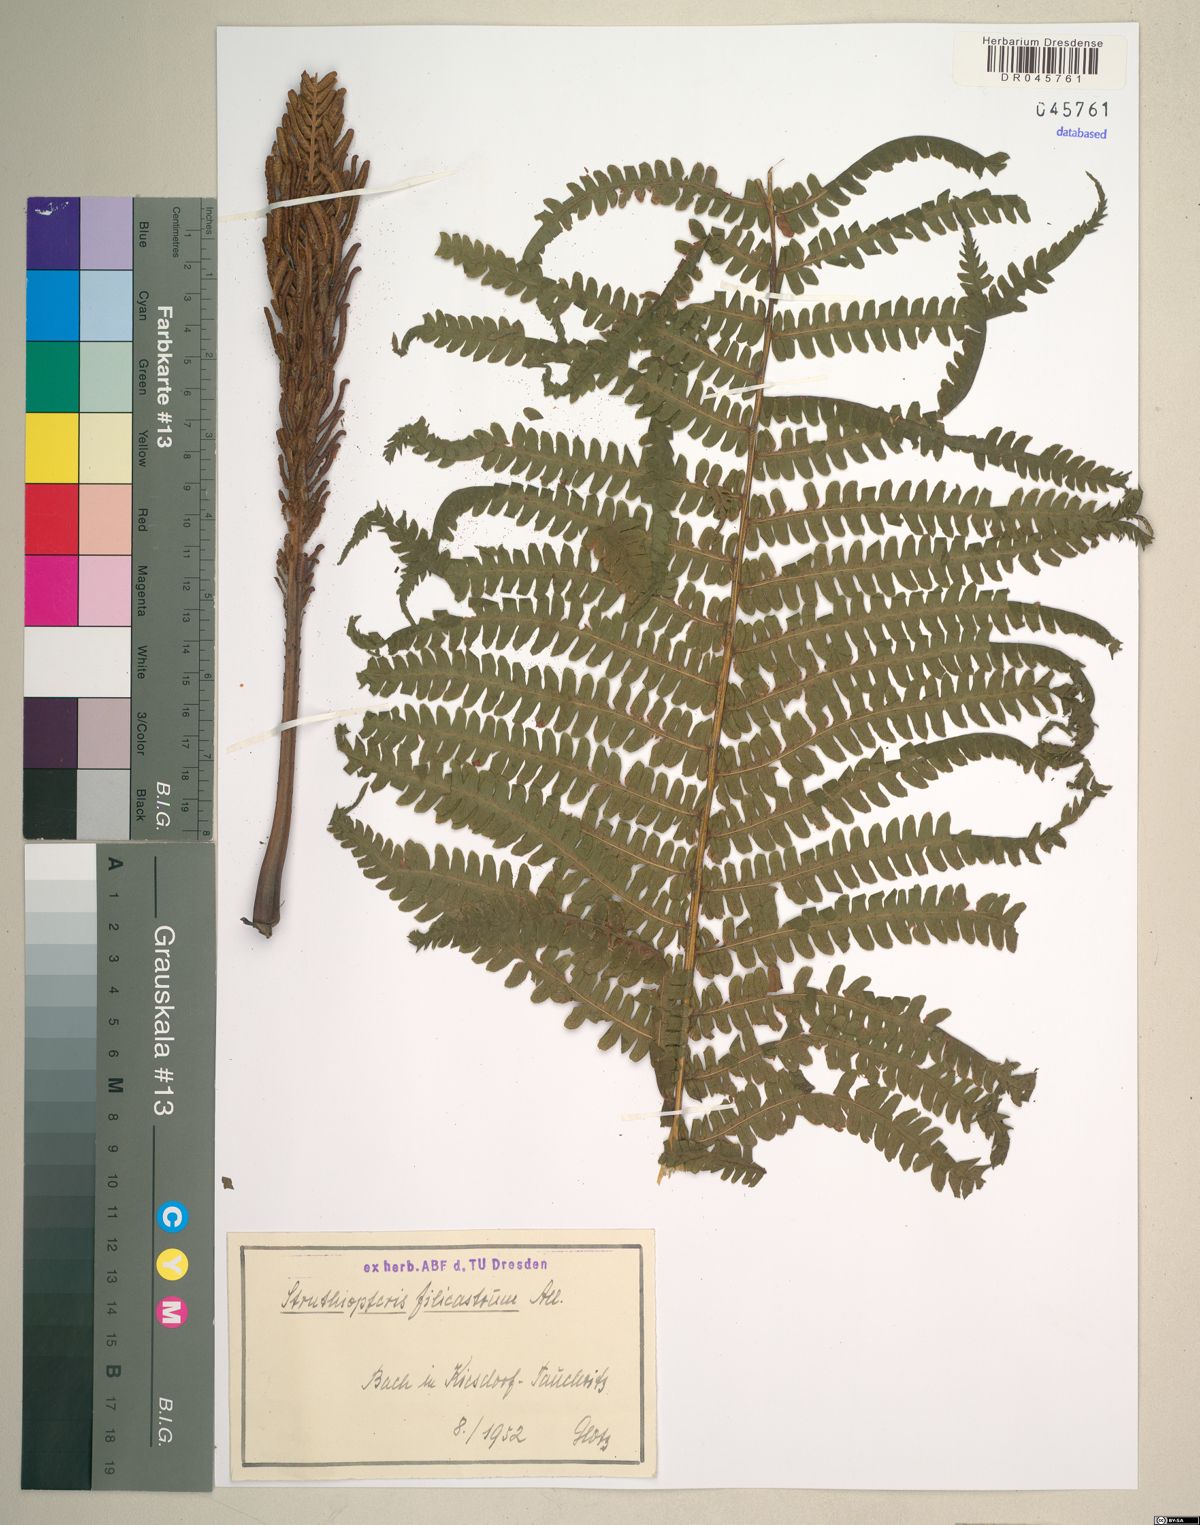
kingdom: Plantae
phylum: Tracheophyta
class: Polypodiopsida
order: Polypodiales
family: Onocleaceae
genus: Matteuccia
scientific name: Matteuccia struthiopteris
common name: Ostrich fern
